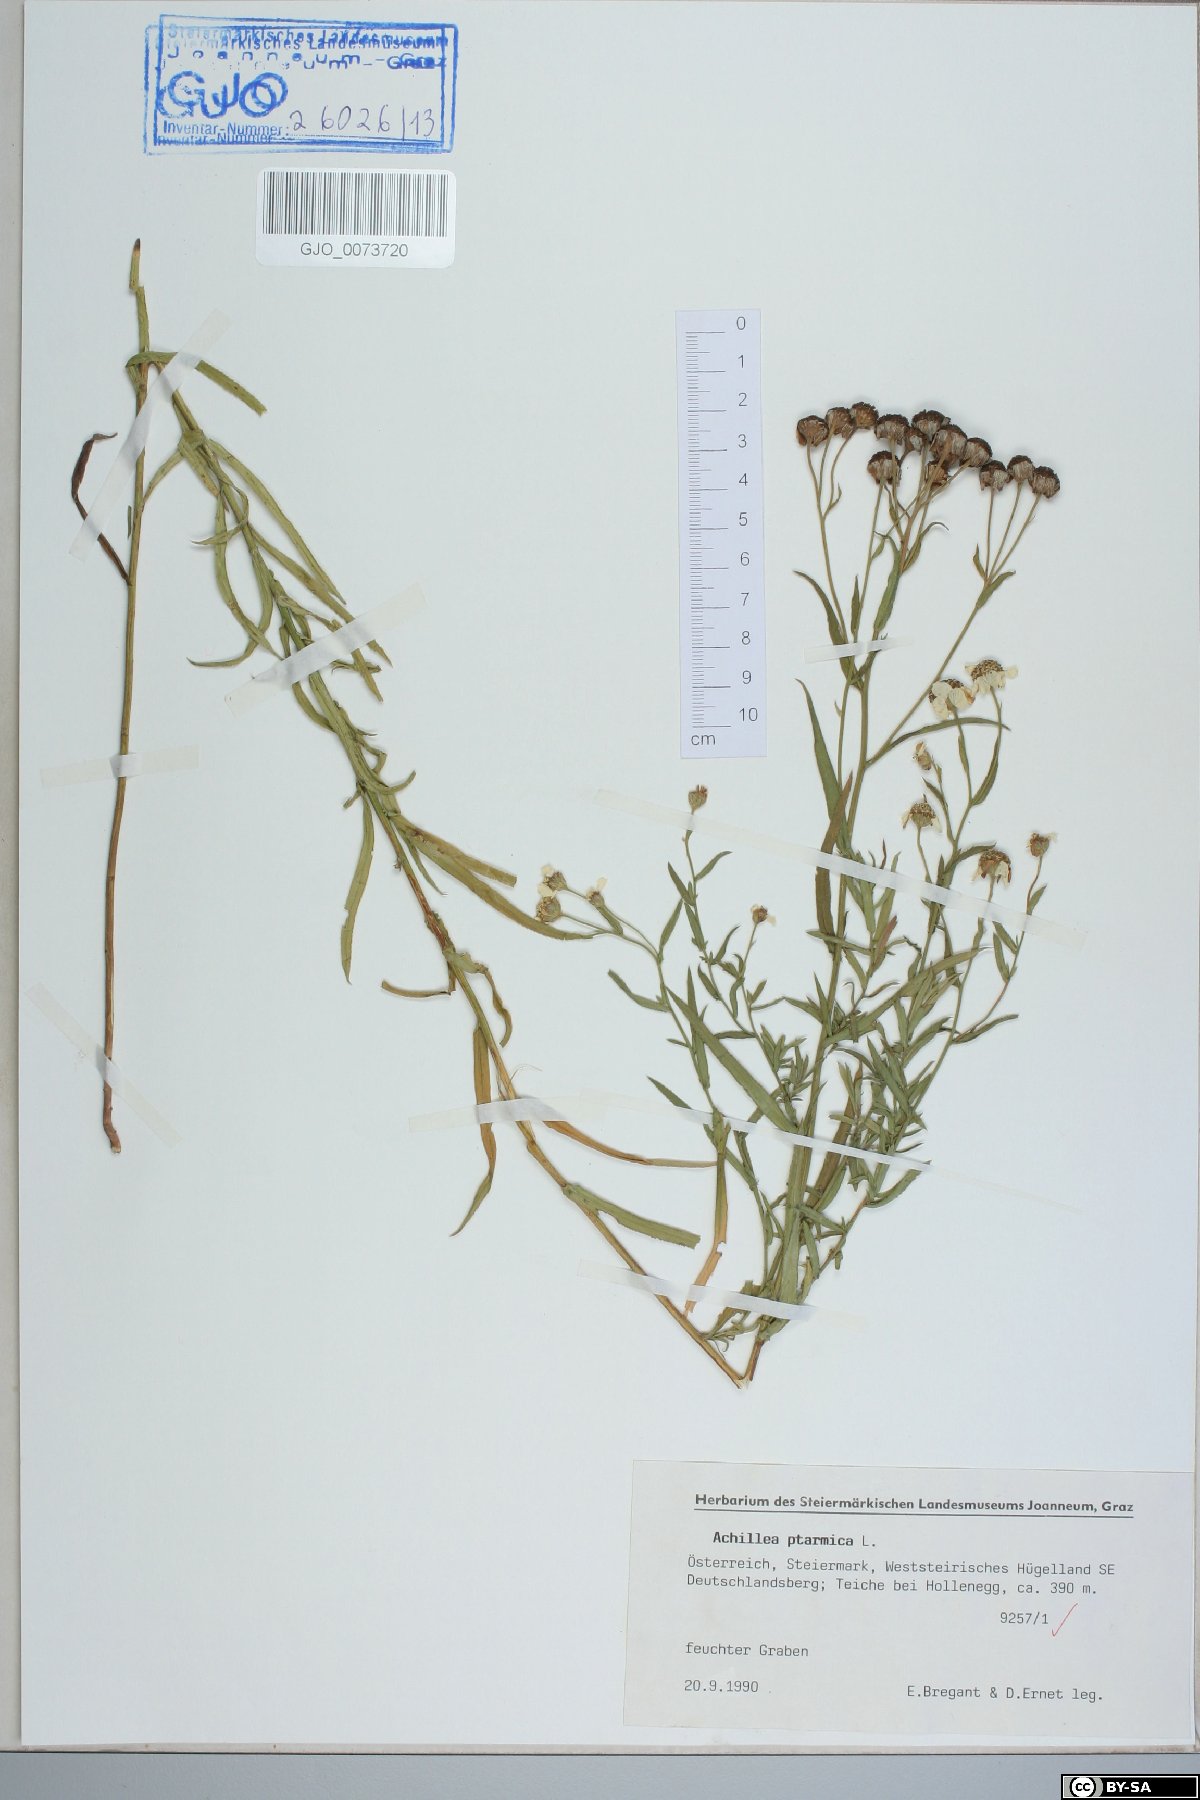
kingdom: Plantae
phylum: Tracheophyta
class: Magnoliopsida
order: Asterales
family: Asteraceae
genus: Achillea
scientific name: Achillea ptarmica
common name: Sneezeweed
